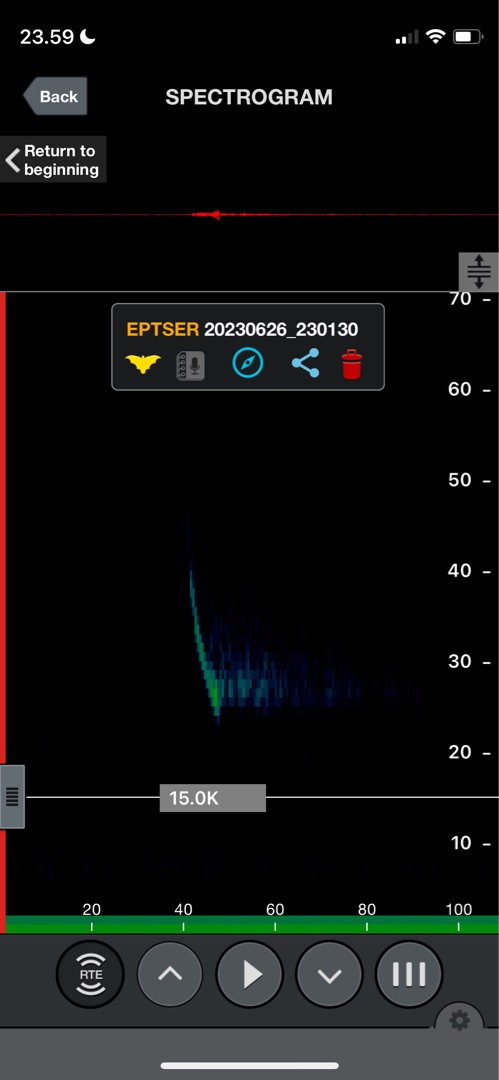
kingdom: Animalia
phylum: Chordata
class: Mammalia
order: Chiroptera
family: Vespertilionidae
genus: Eptesicus
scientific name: Eptesicus serotinus
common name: Sydflagermus
